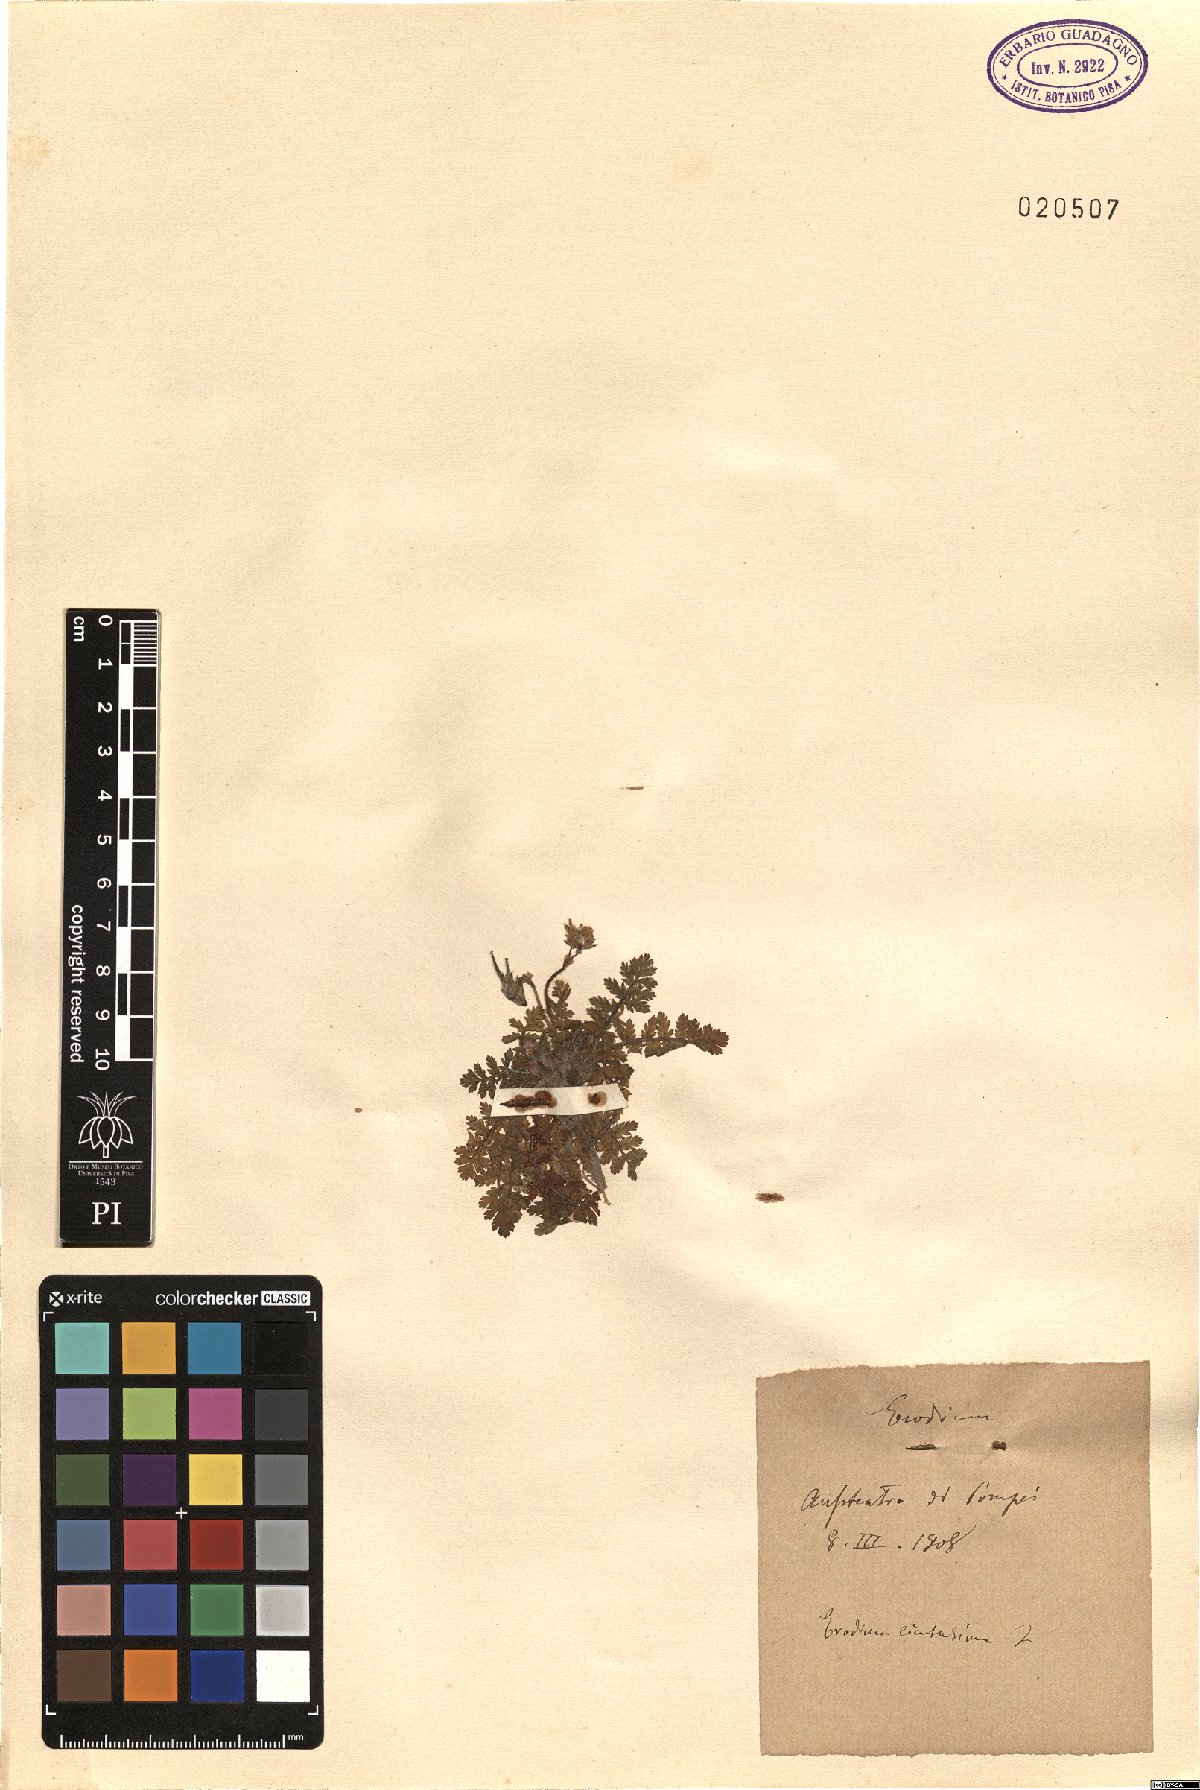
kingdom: Plantae
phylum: Tracheophyta
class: Magnoliopsida
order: Geraniales
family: Geraniaceae
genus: Erodium
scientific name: Erodium cicutarium
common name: Common stork's-bill
